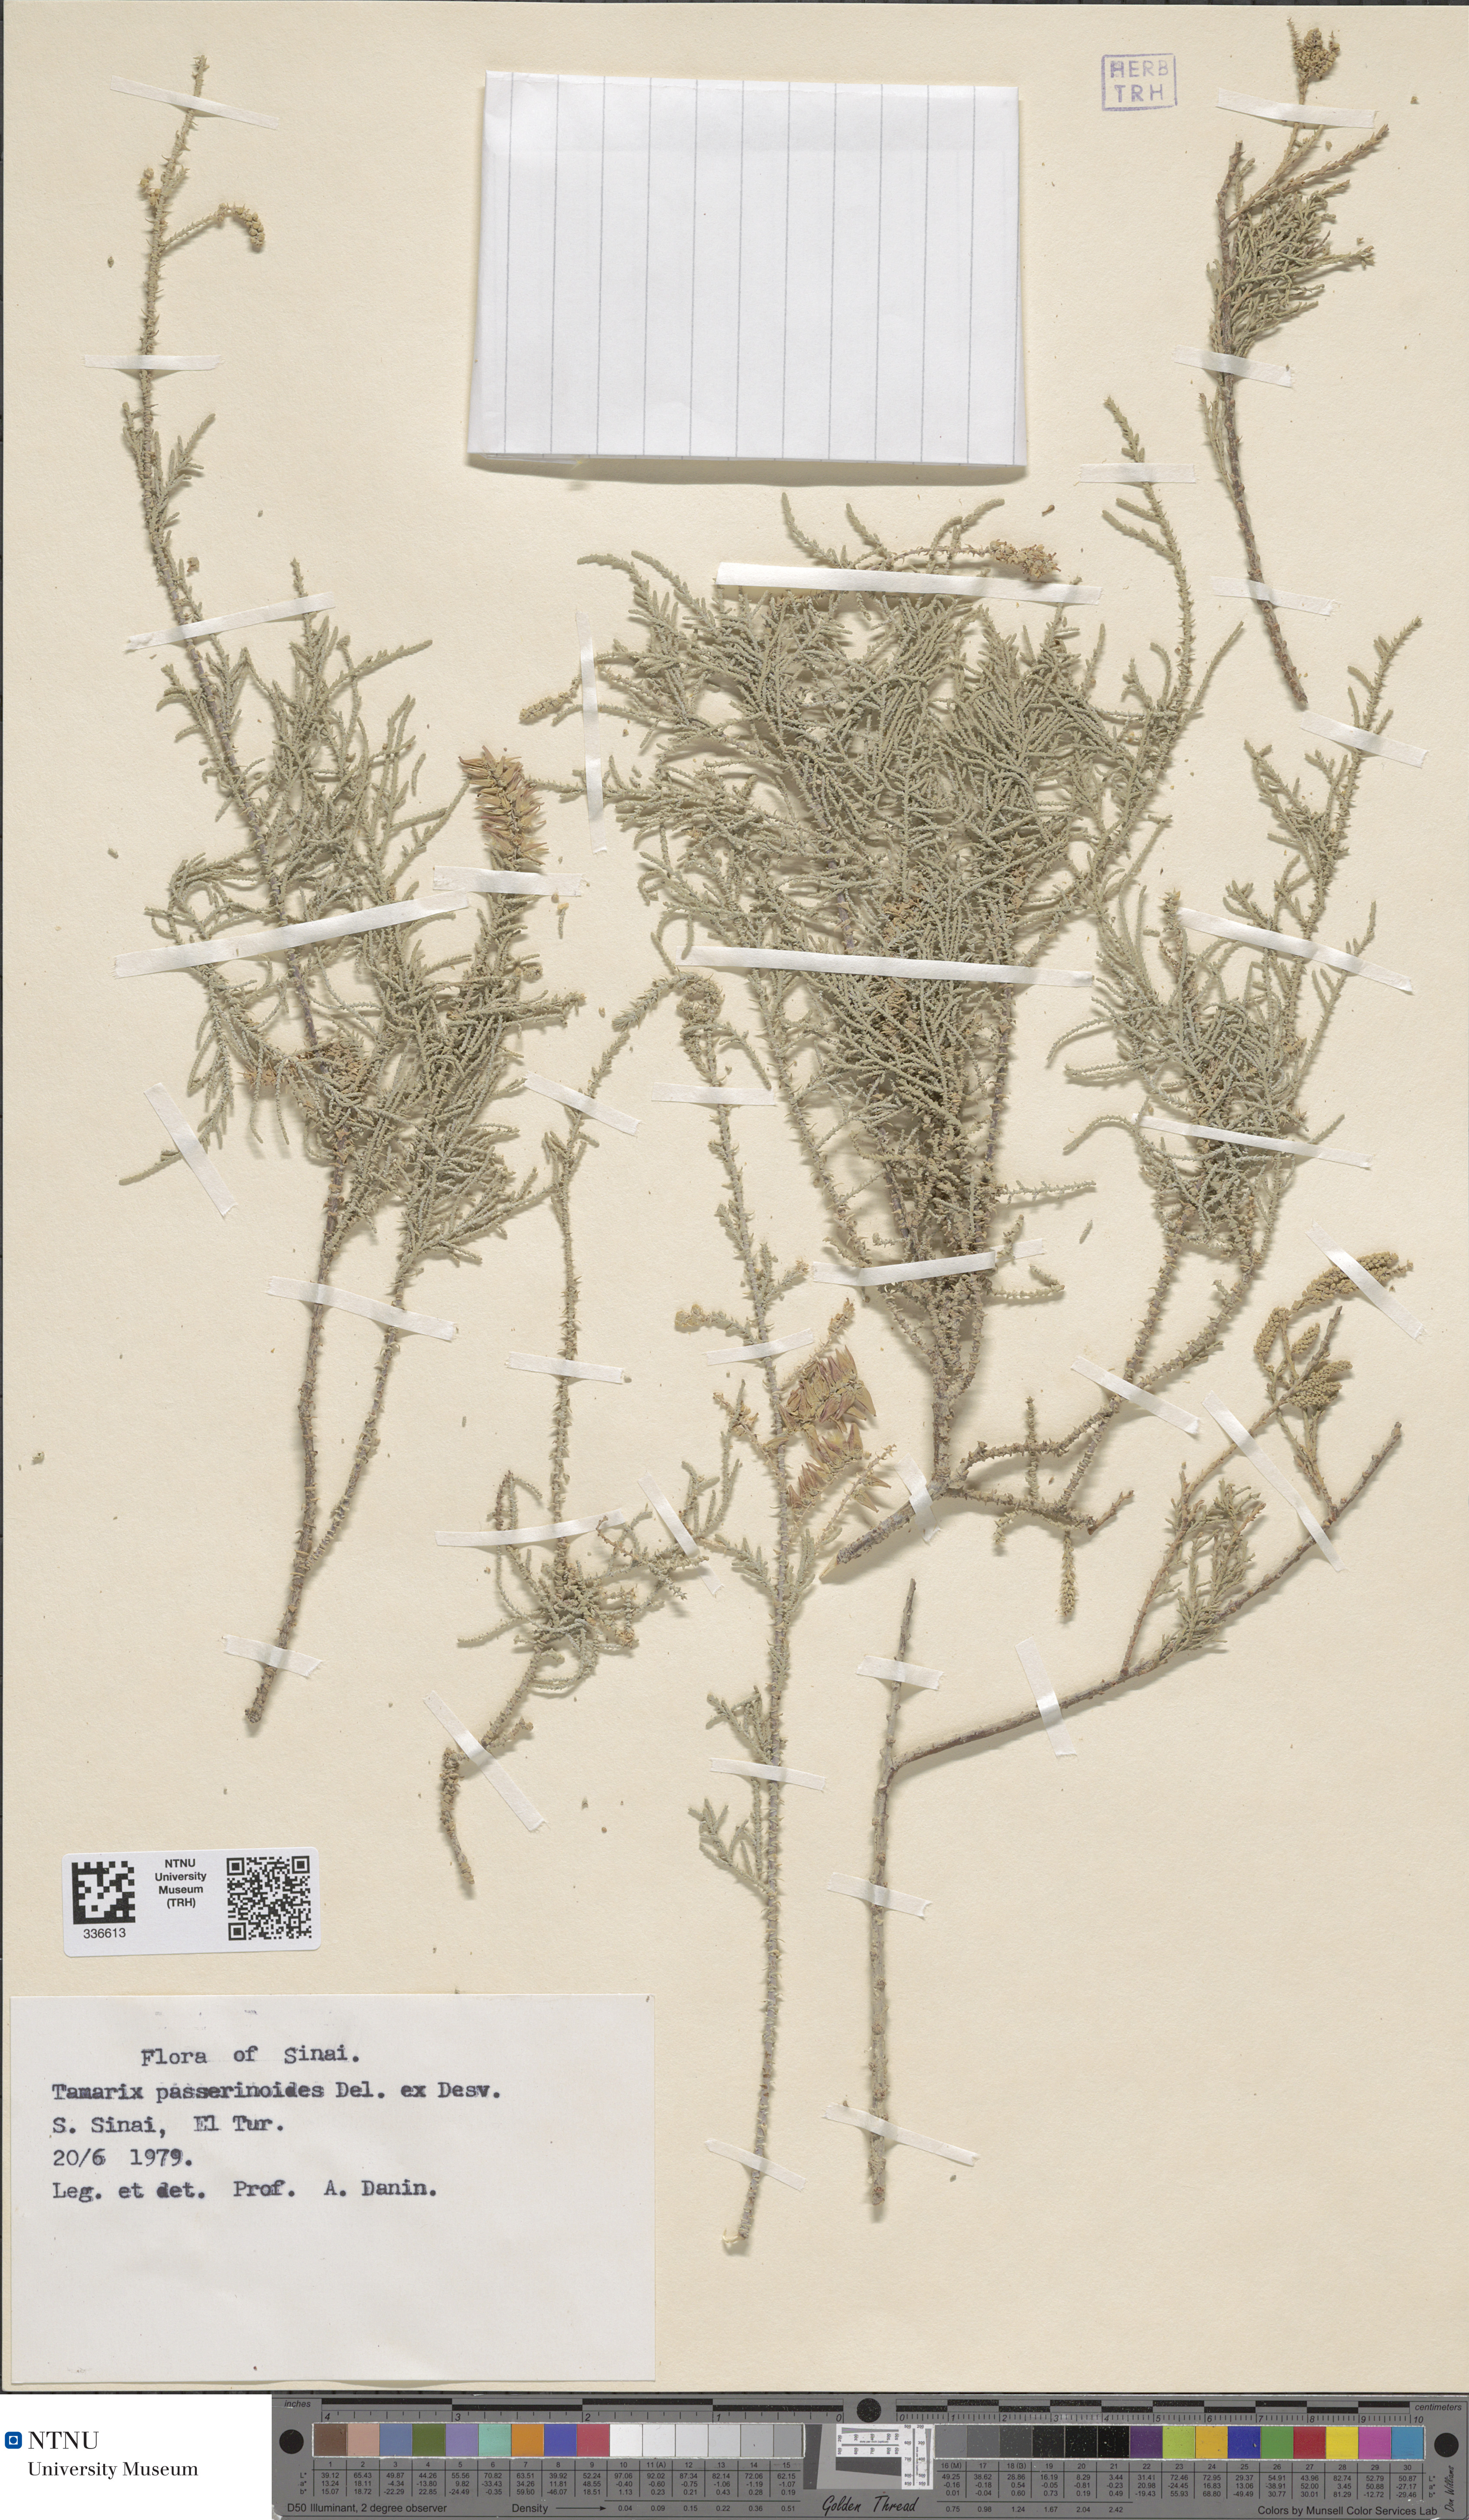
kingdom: Plantae
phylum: Tracheophyta
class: Magnoliopsida
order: Caryophyllales
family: Tamaricaceae
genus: Tamarix
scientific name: Tamarix passerinoides
